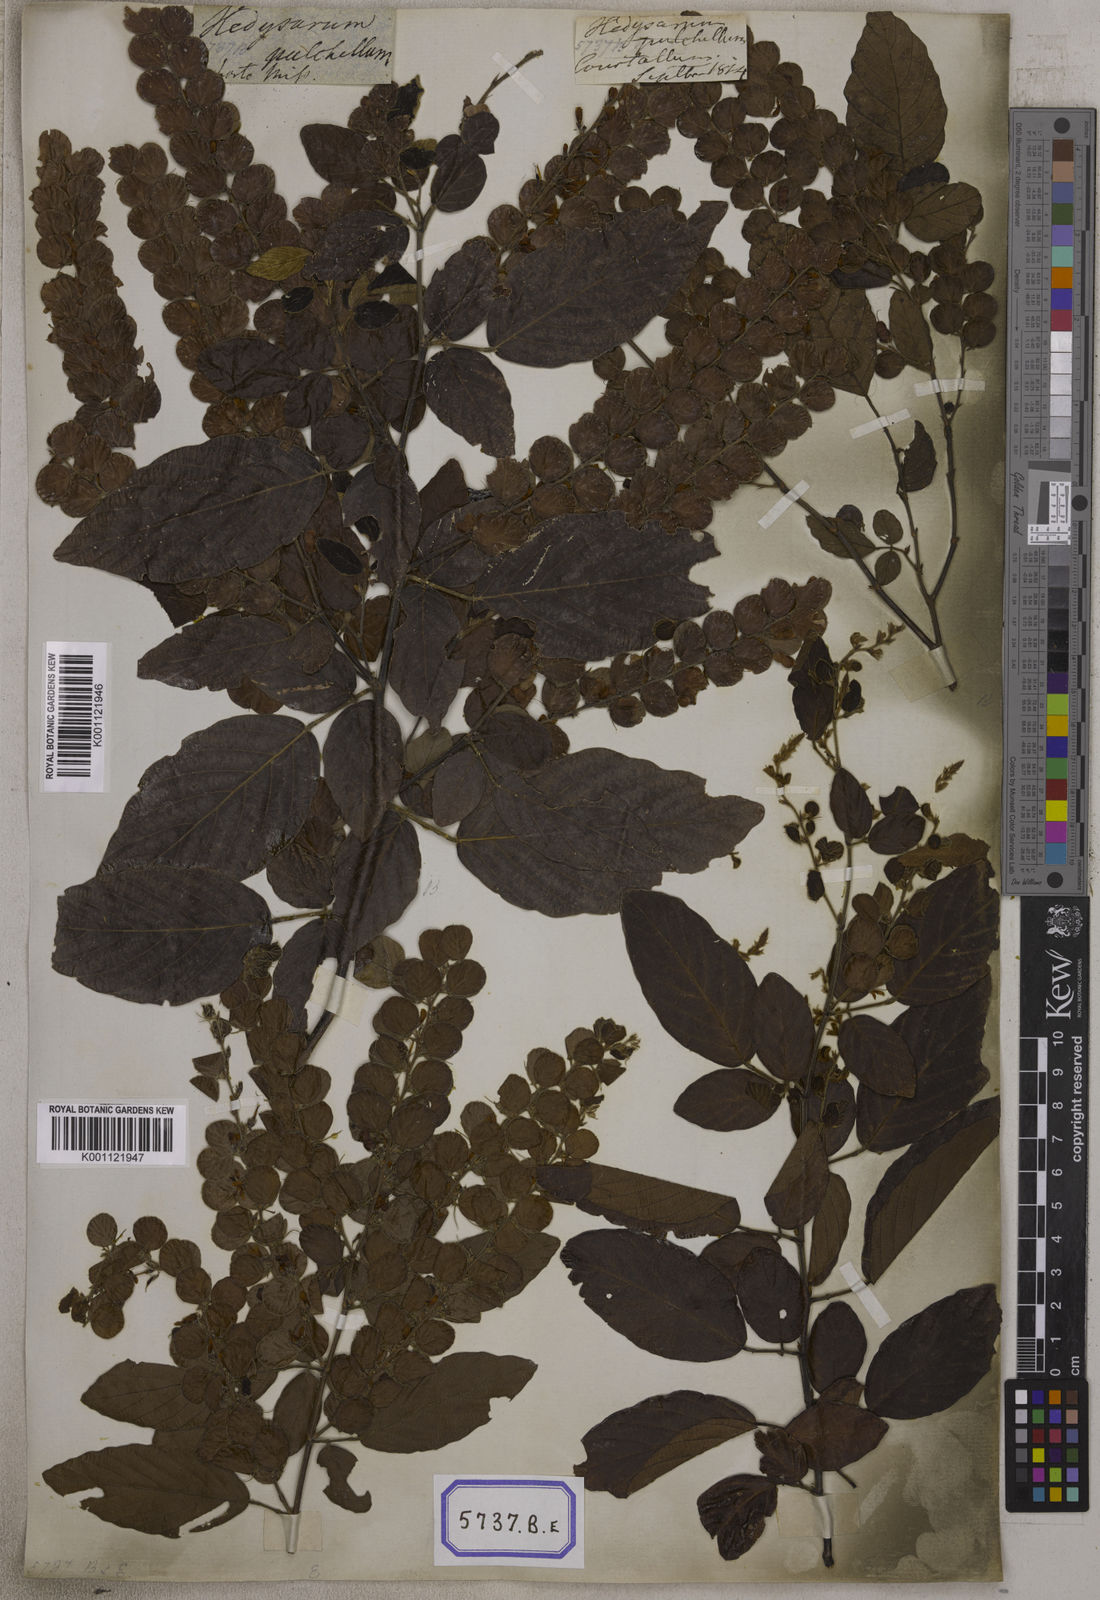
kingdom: Plantae
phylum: Tracheophyta
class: Magnoliopsida
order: Fabales
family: Fabaceae
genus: Phyllodium
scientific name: Phyllodium pulchellum
